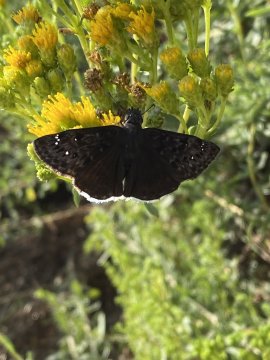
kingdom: Animalia
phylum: Arthropoda
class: Insecta
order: Lepidoptera
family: Hesperiidae
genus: Erynnis
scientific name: Erynnis tristis
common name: Mournful Duskywing
